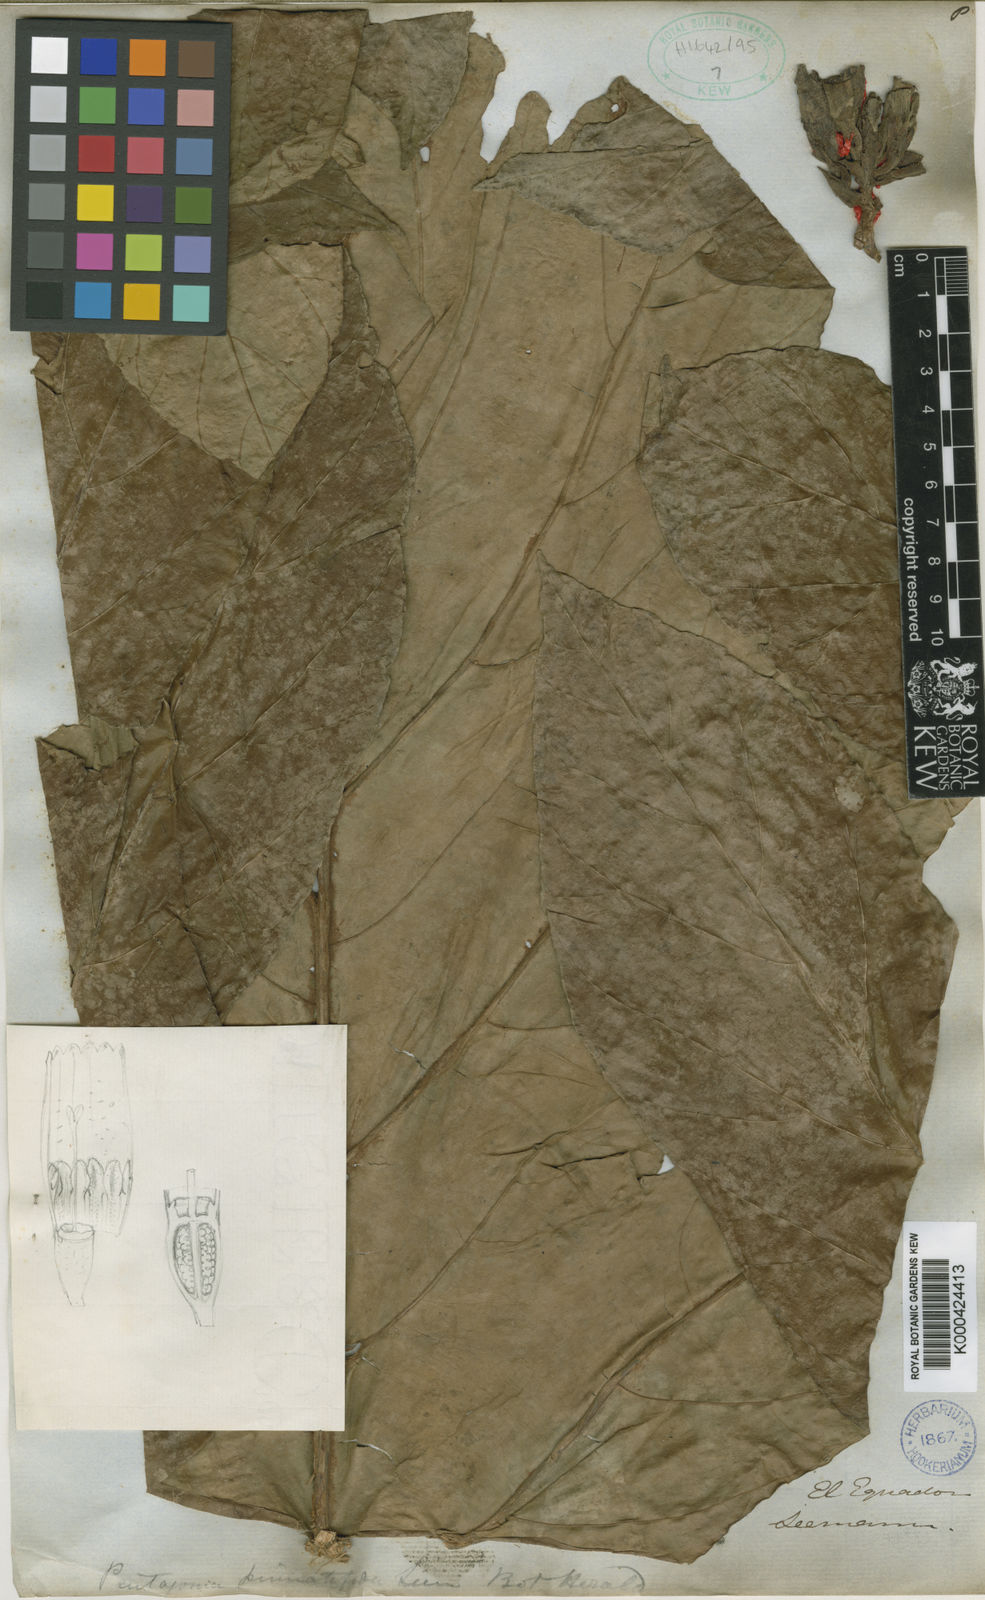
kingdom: Plantae
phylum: Tracheophyta
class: Magnoliopsida
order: Gentianales
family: Rubiaceae
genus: Pentagonia
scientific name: Pentagonia pinnatifida
